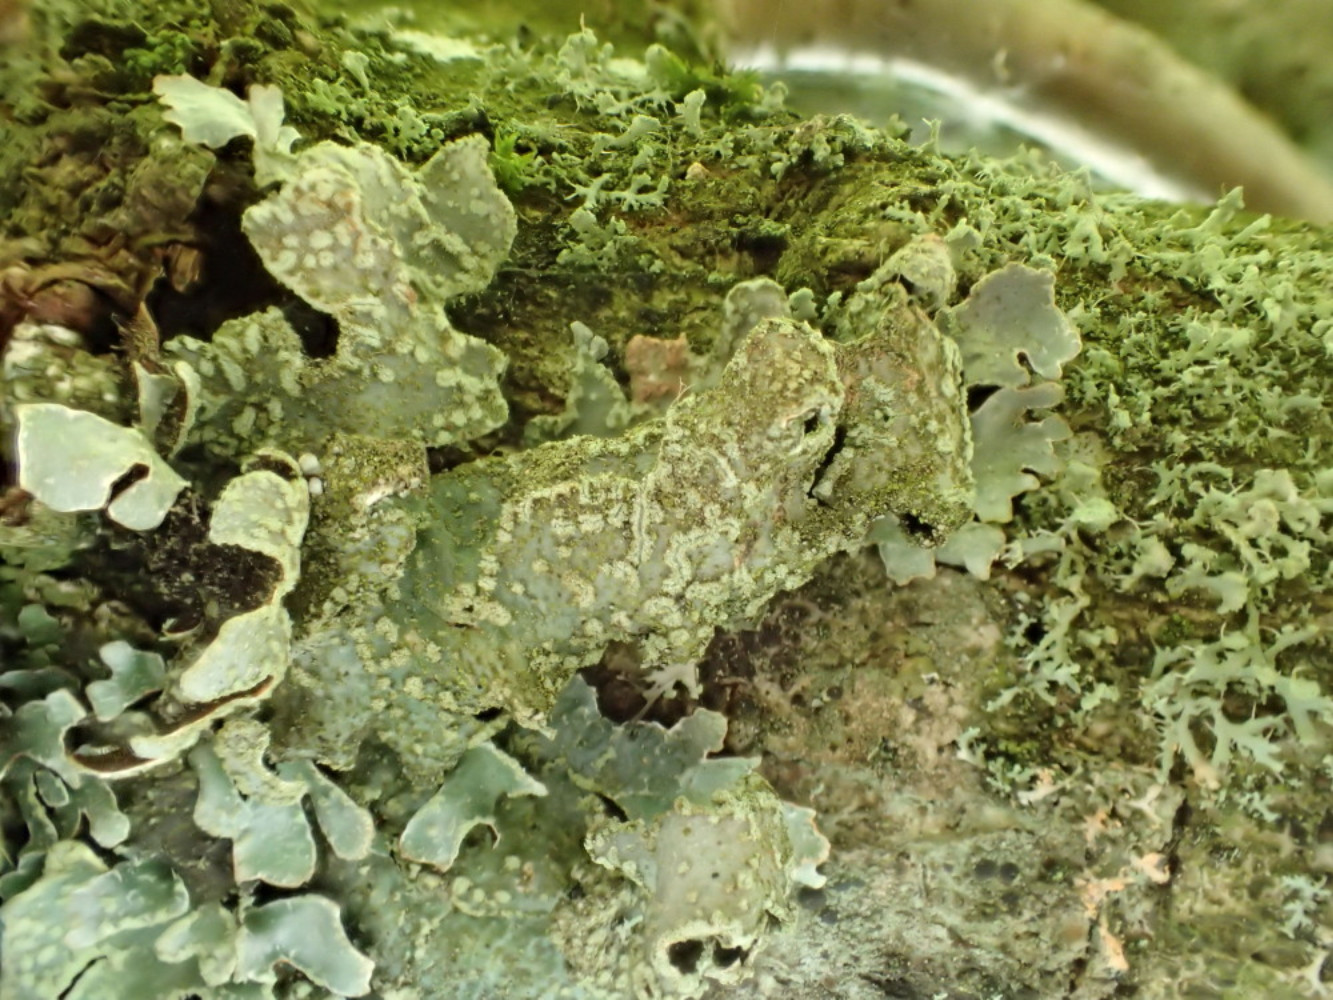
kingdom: Fungi
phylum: Ascomycota
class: Lecanoromycetes
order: Lecanorales
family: Parmeliaceae
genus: Parmelia
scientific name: Parmelia sulcata
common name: rynket skållav
